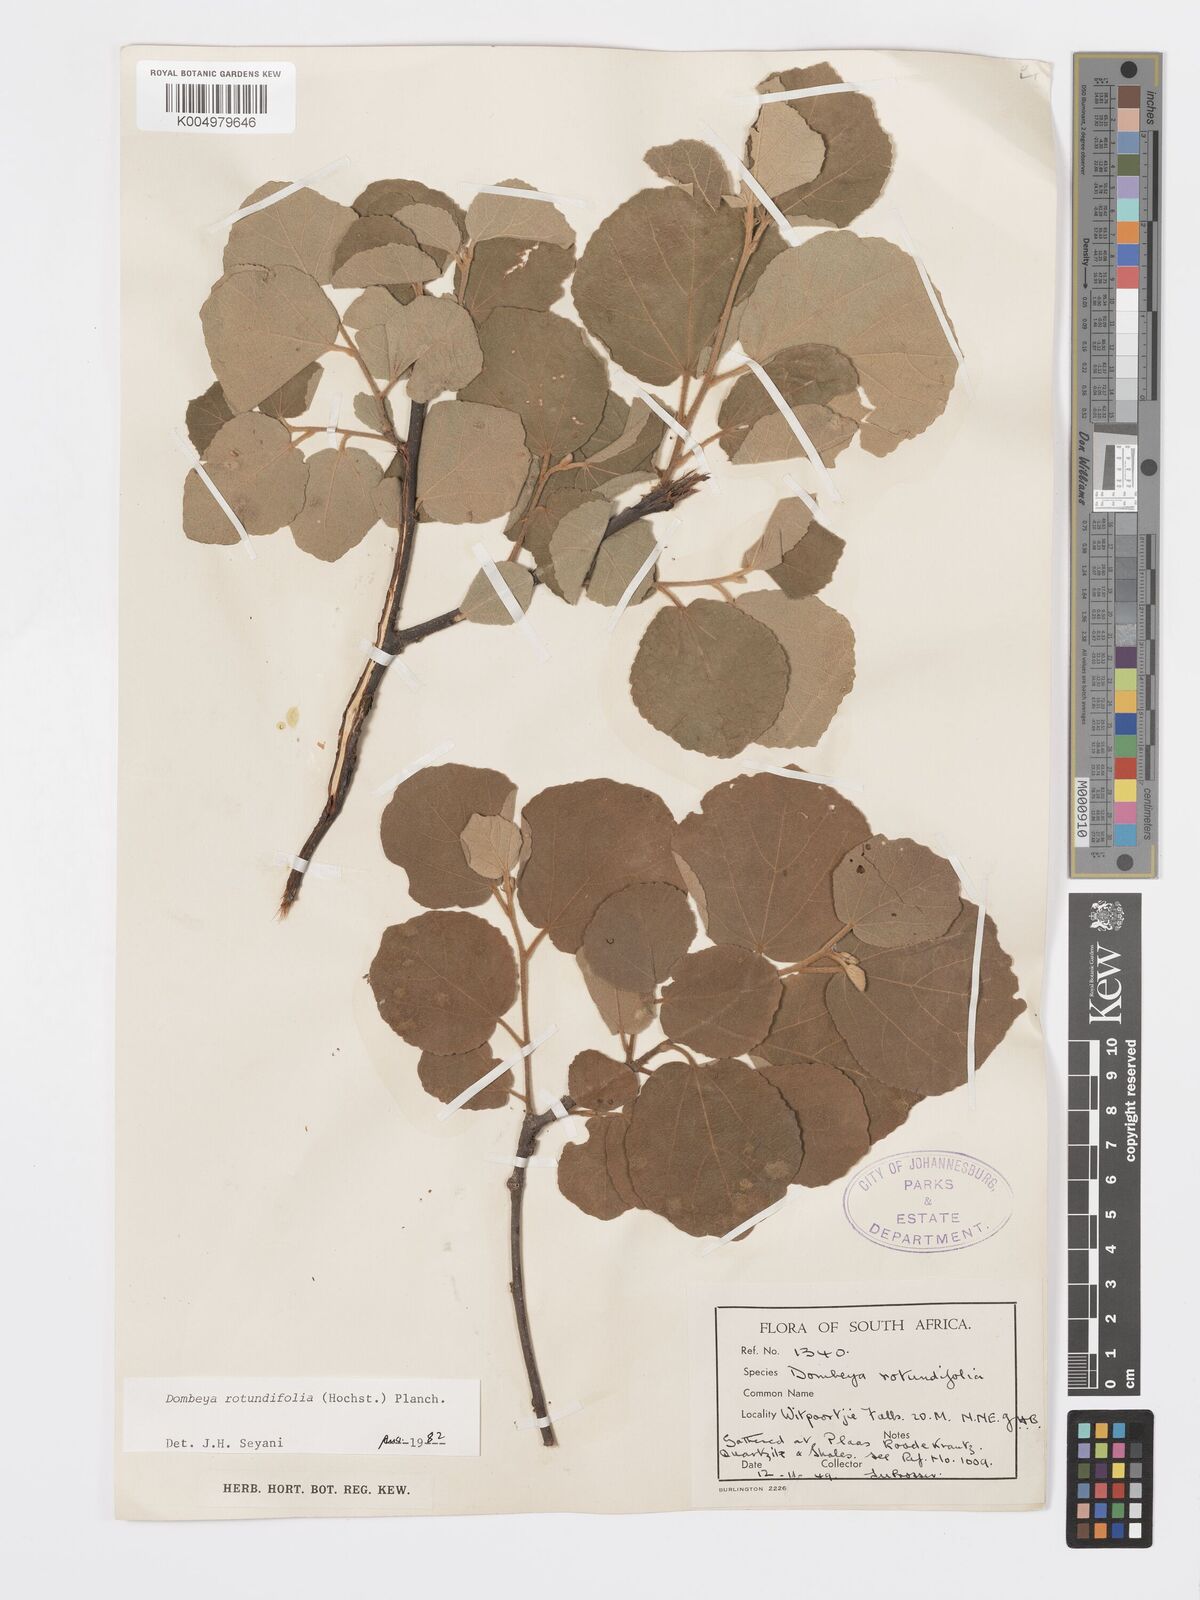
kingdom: Plantae
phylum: Tracheophyta
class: Magnoliopsida
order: Malvales
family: Malvaceae
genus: Dombeya
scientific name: Dombeya rotundifolia
